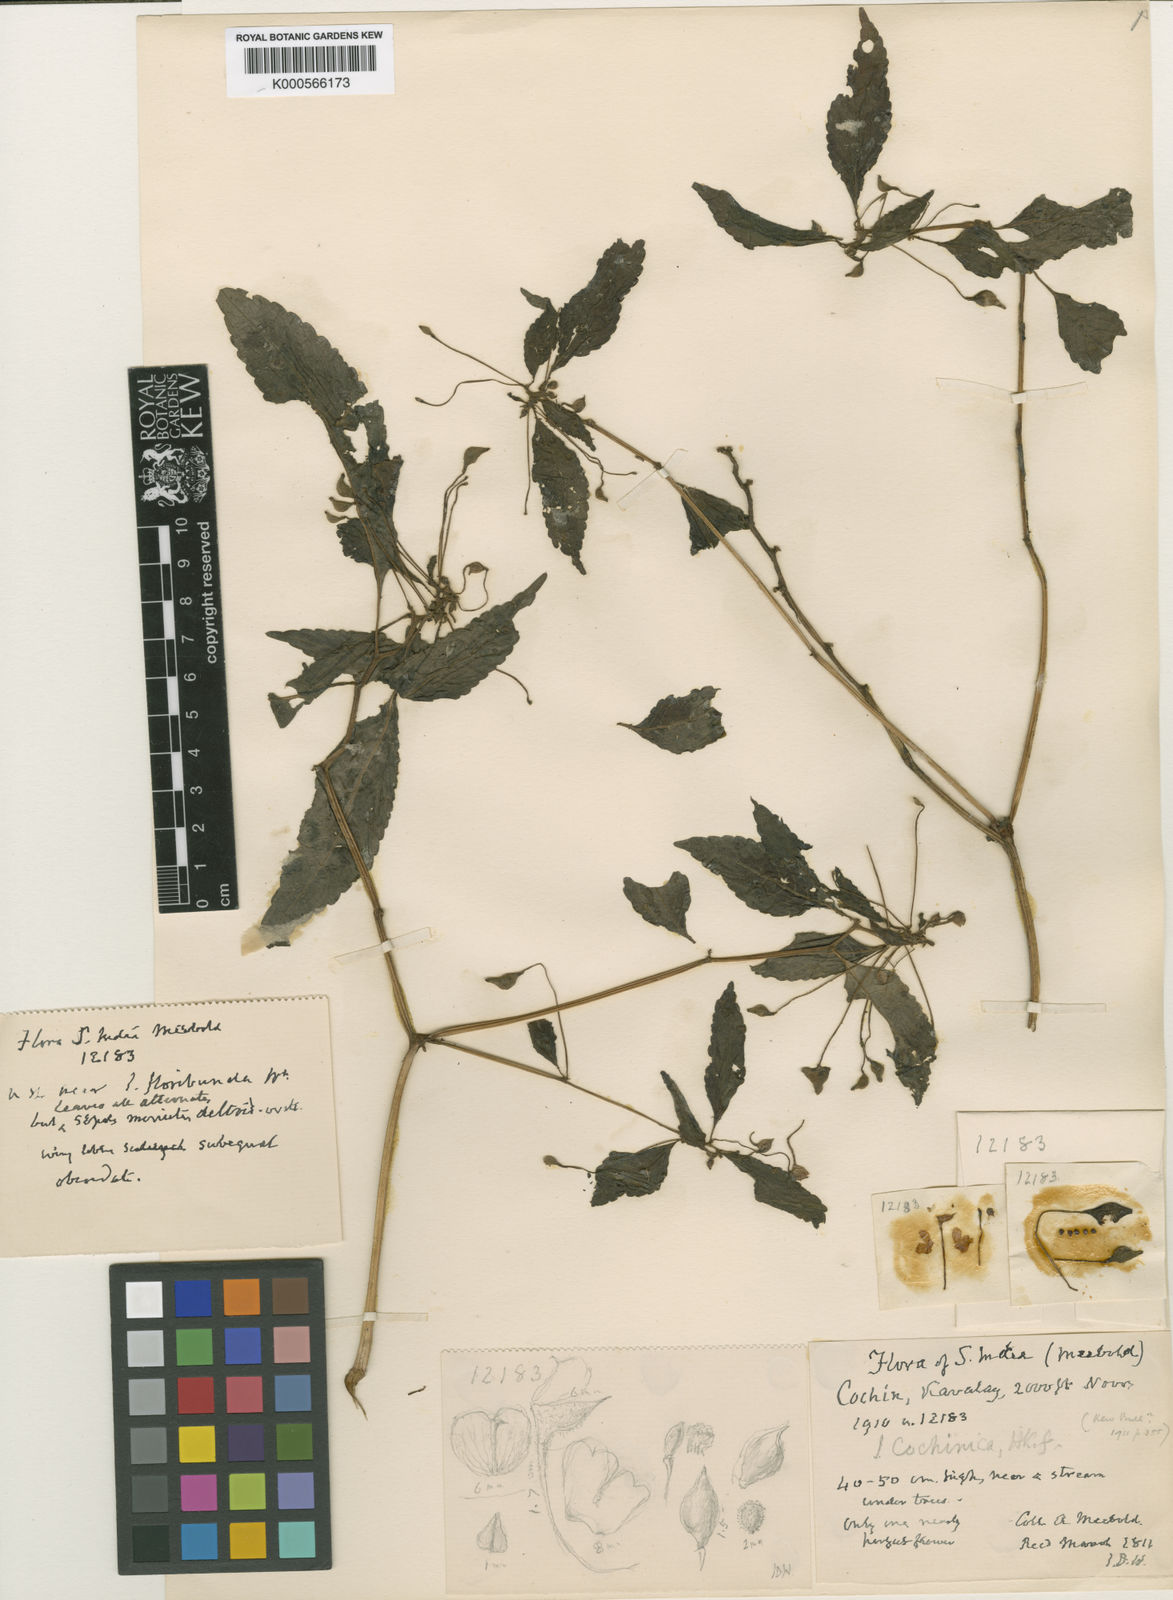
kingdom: Plantae
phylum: Tracheophyta
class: Magnoliopsida
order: Ericales
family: Balsaminaceae
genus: Impatiens
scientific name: Impatiens dasysperma
